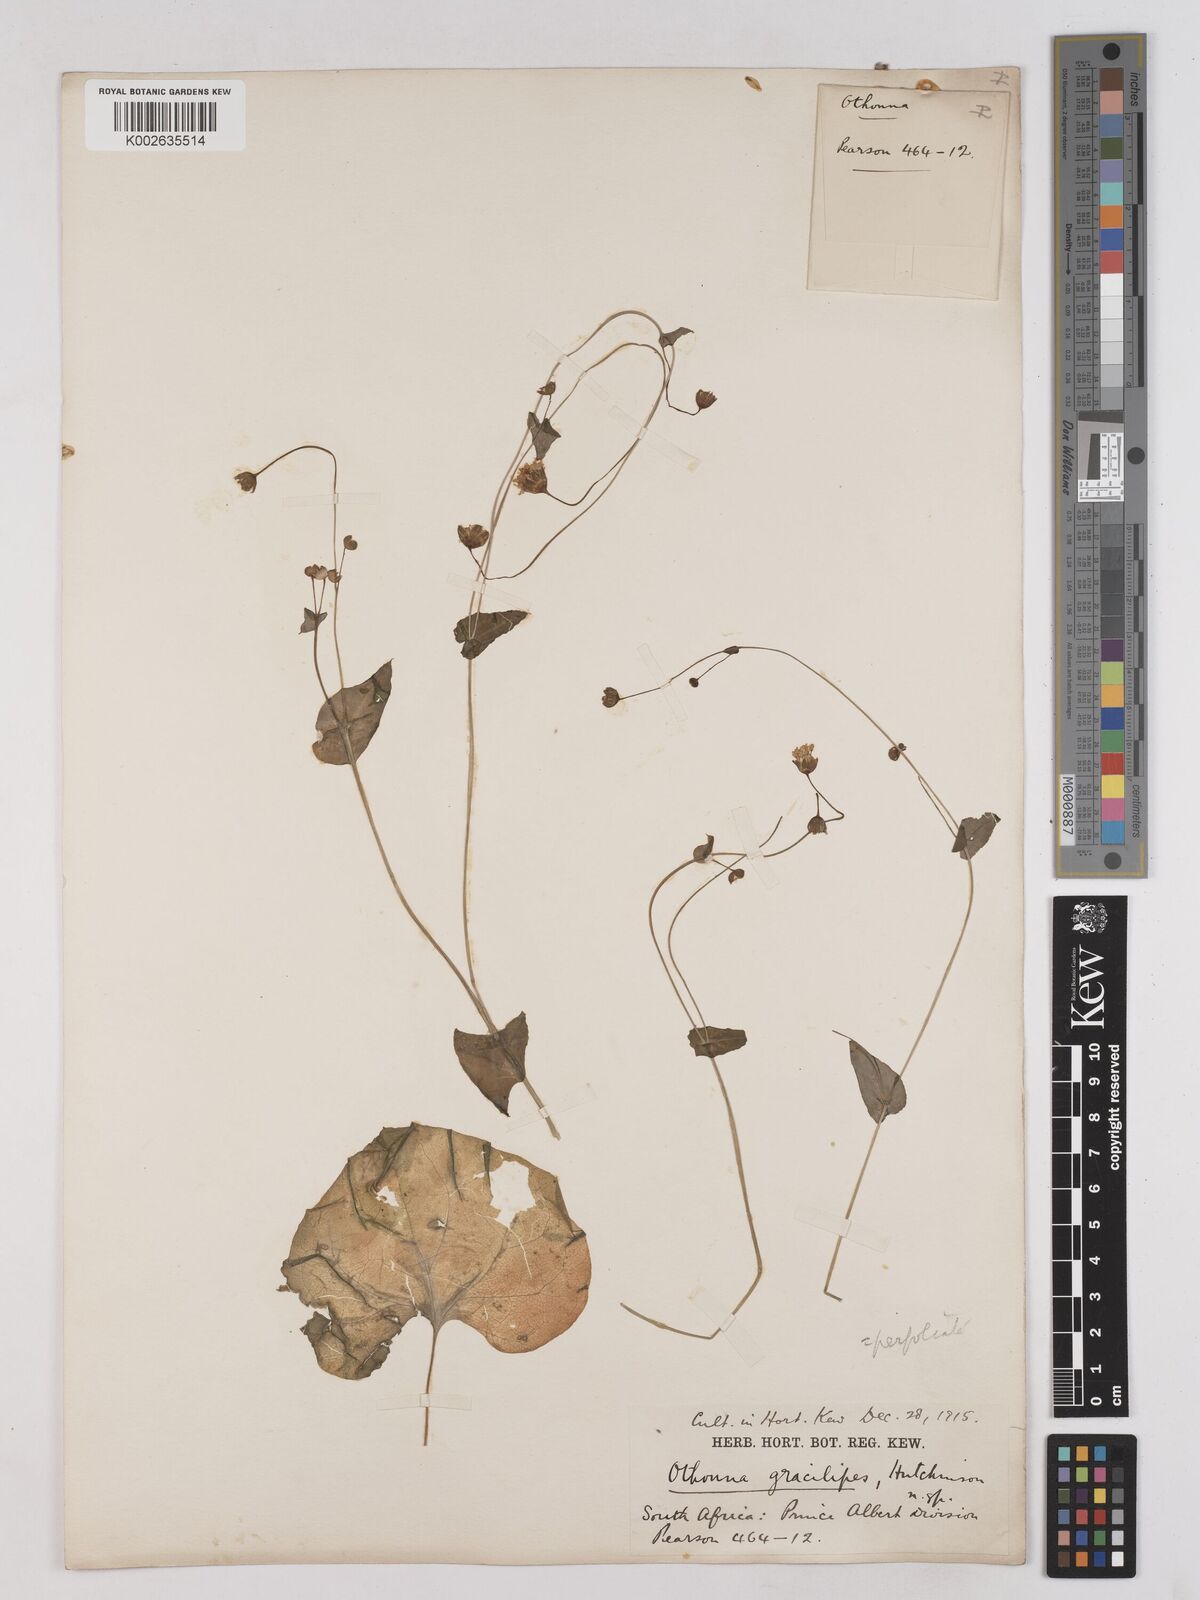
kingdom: Plantae
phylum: Tracheophyta
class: Magnoliopsida
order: Asterales
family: Asteraceae
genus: Othonna
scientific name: Othonna perfoliata
